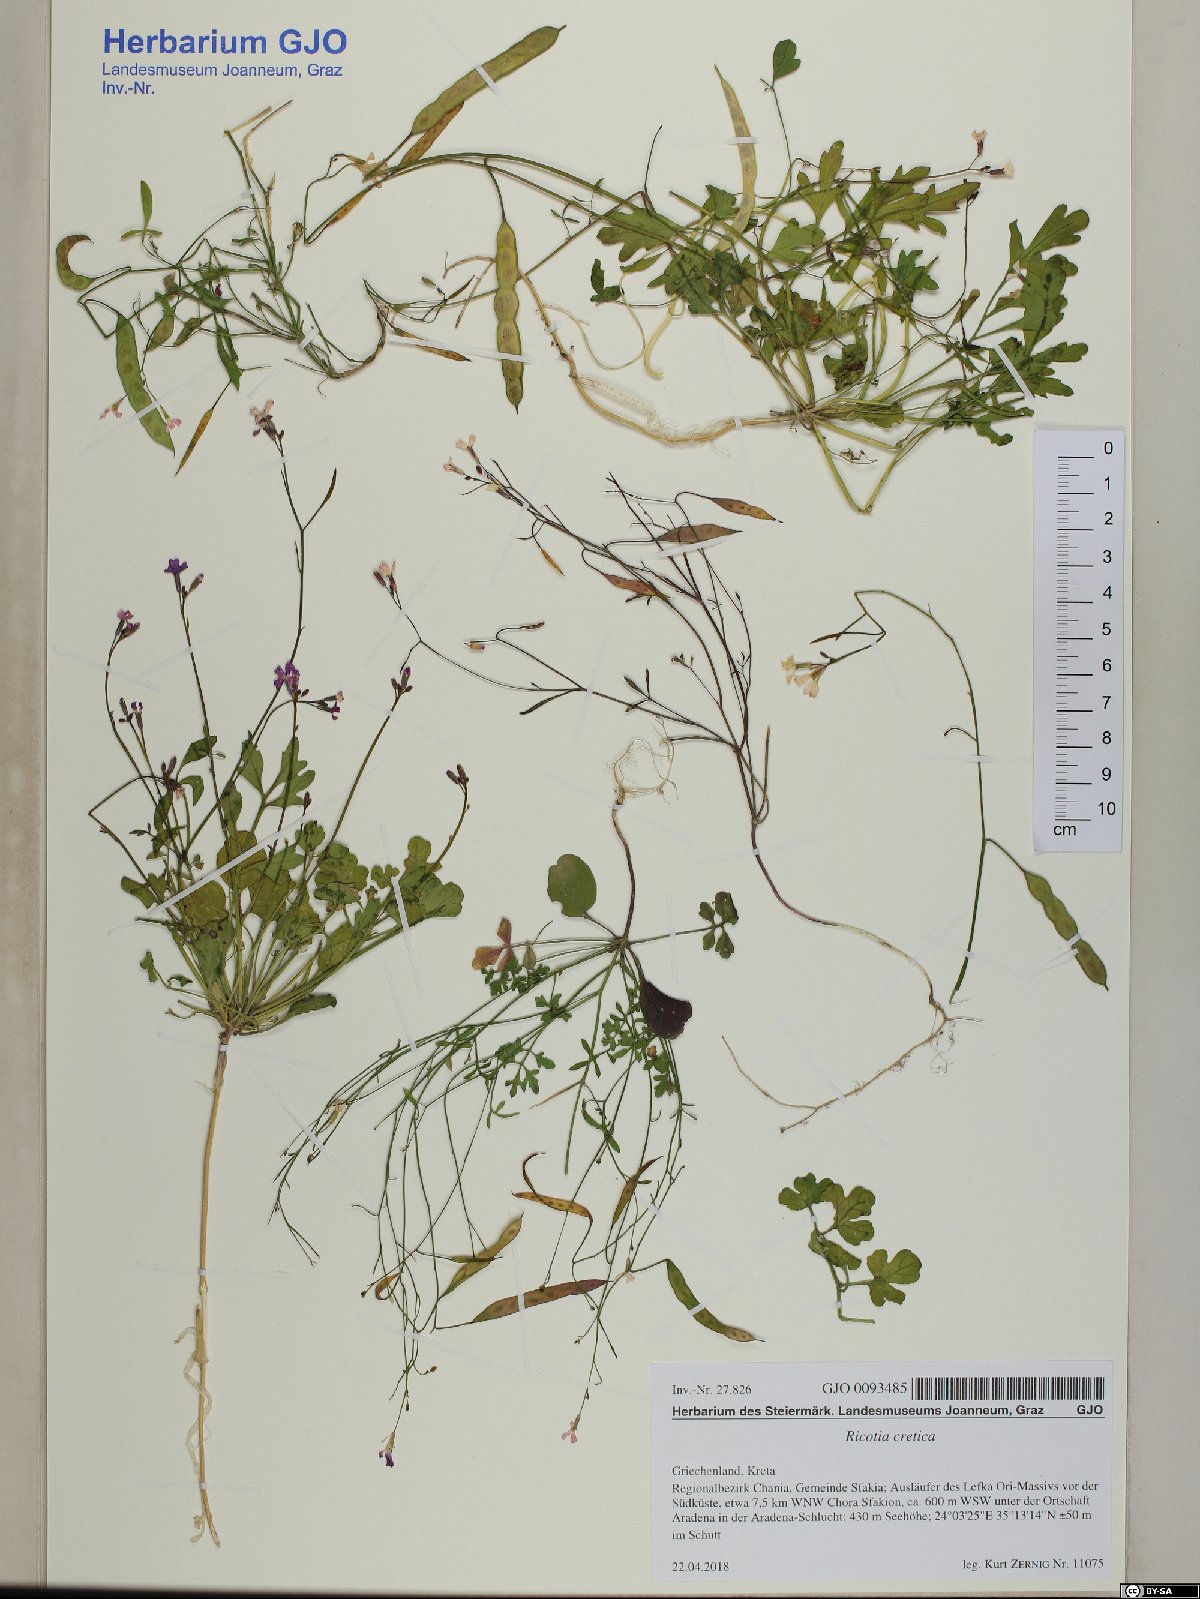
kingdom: Plantae
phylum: Tracheophyta
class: Magnoliopsida
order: Brassicales
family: Brassicaceae
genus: Ricotia
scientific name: Ricotia cretica
